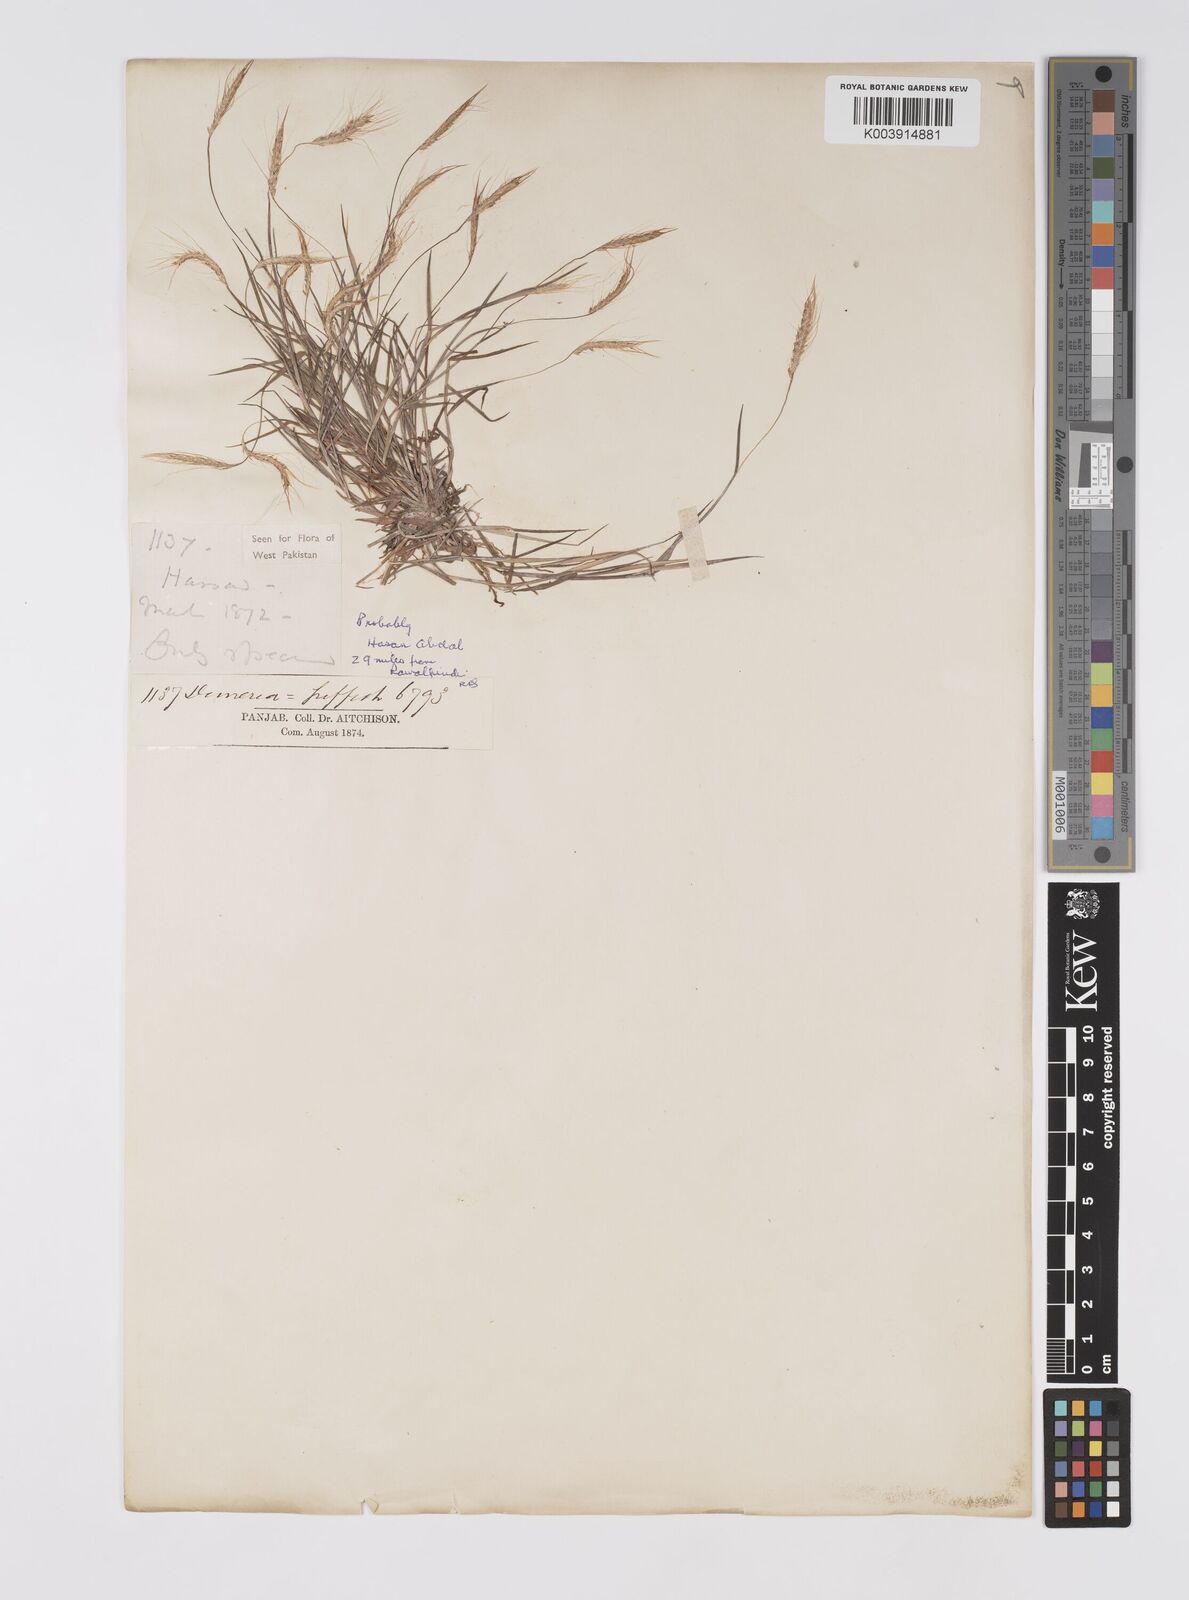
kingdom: Plantae
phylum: Tracheophyta
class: Liliopsida
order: Poales
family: Poaceae
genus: Pogonatherum
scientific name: Pogonatherum paniceum
